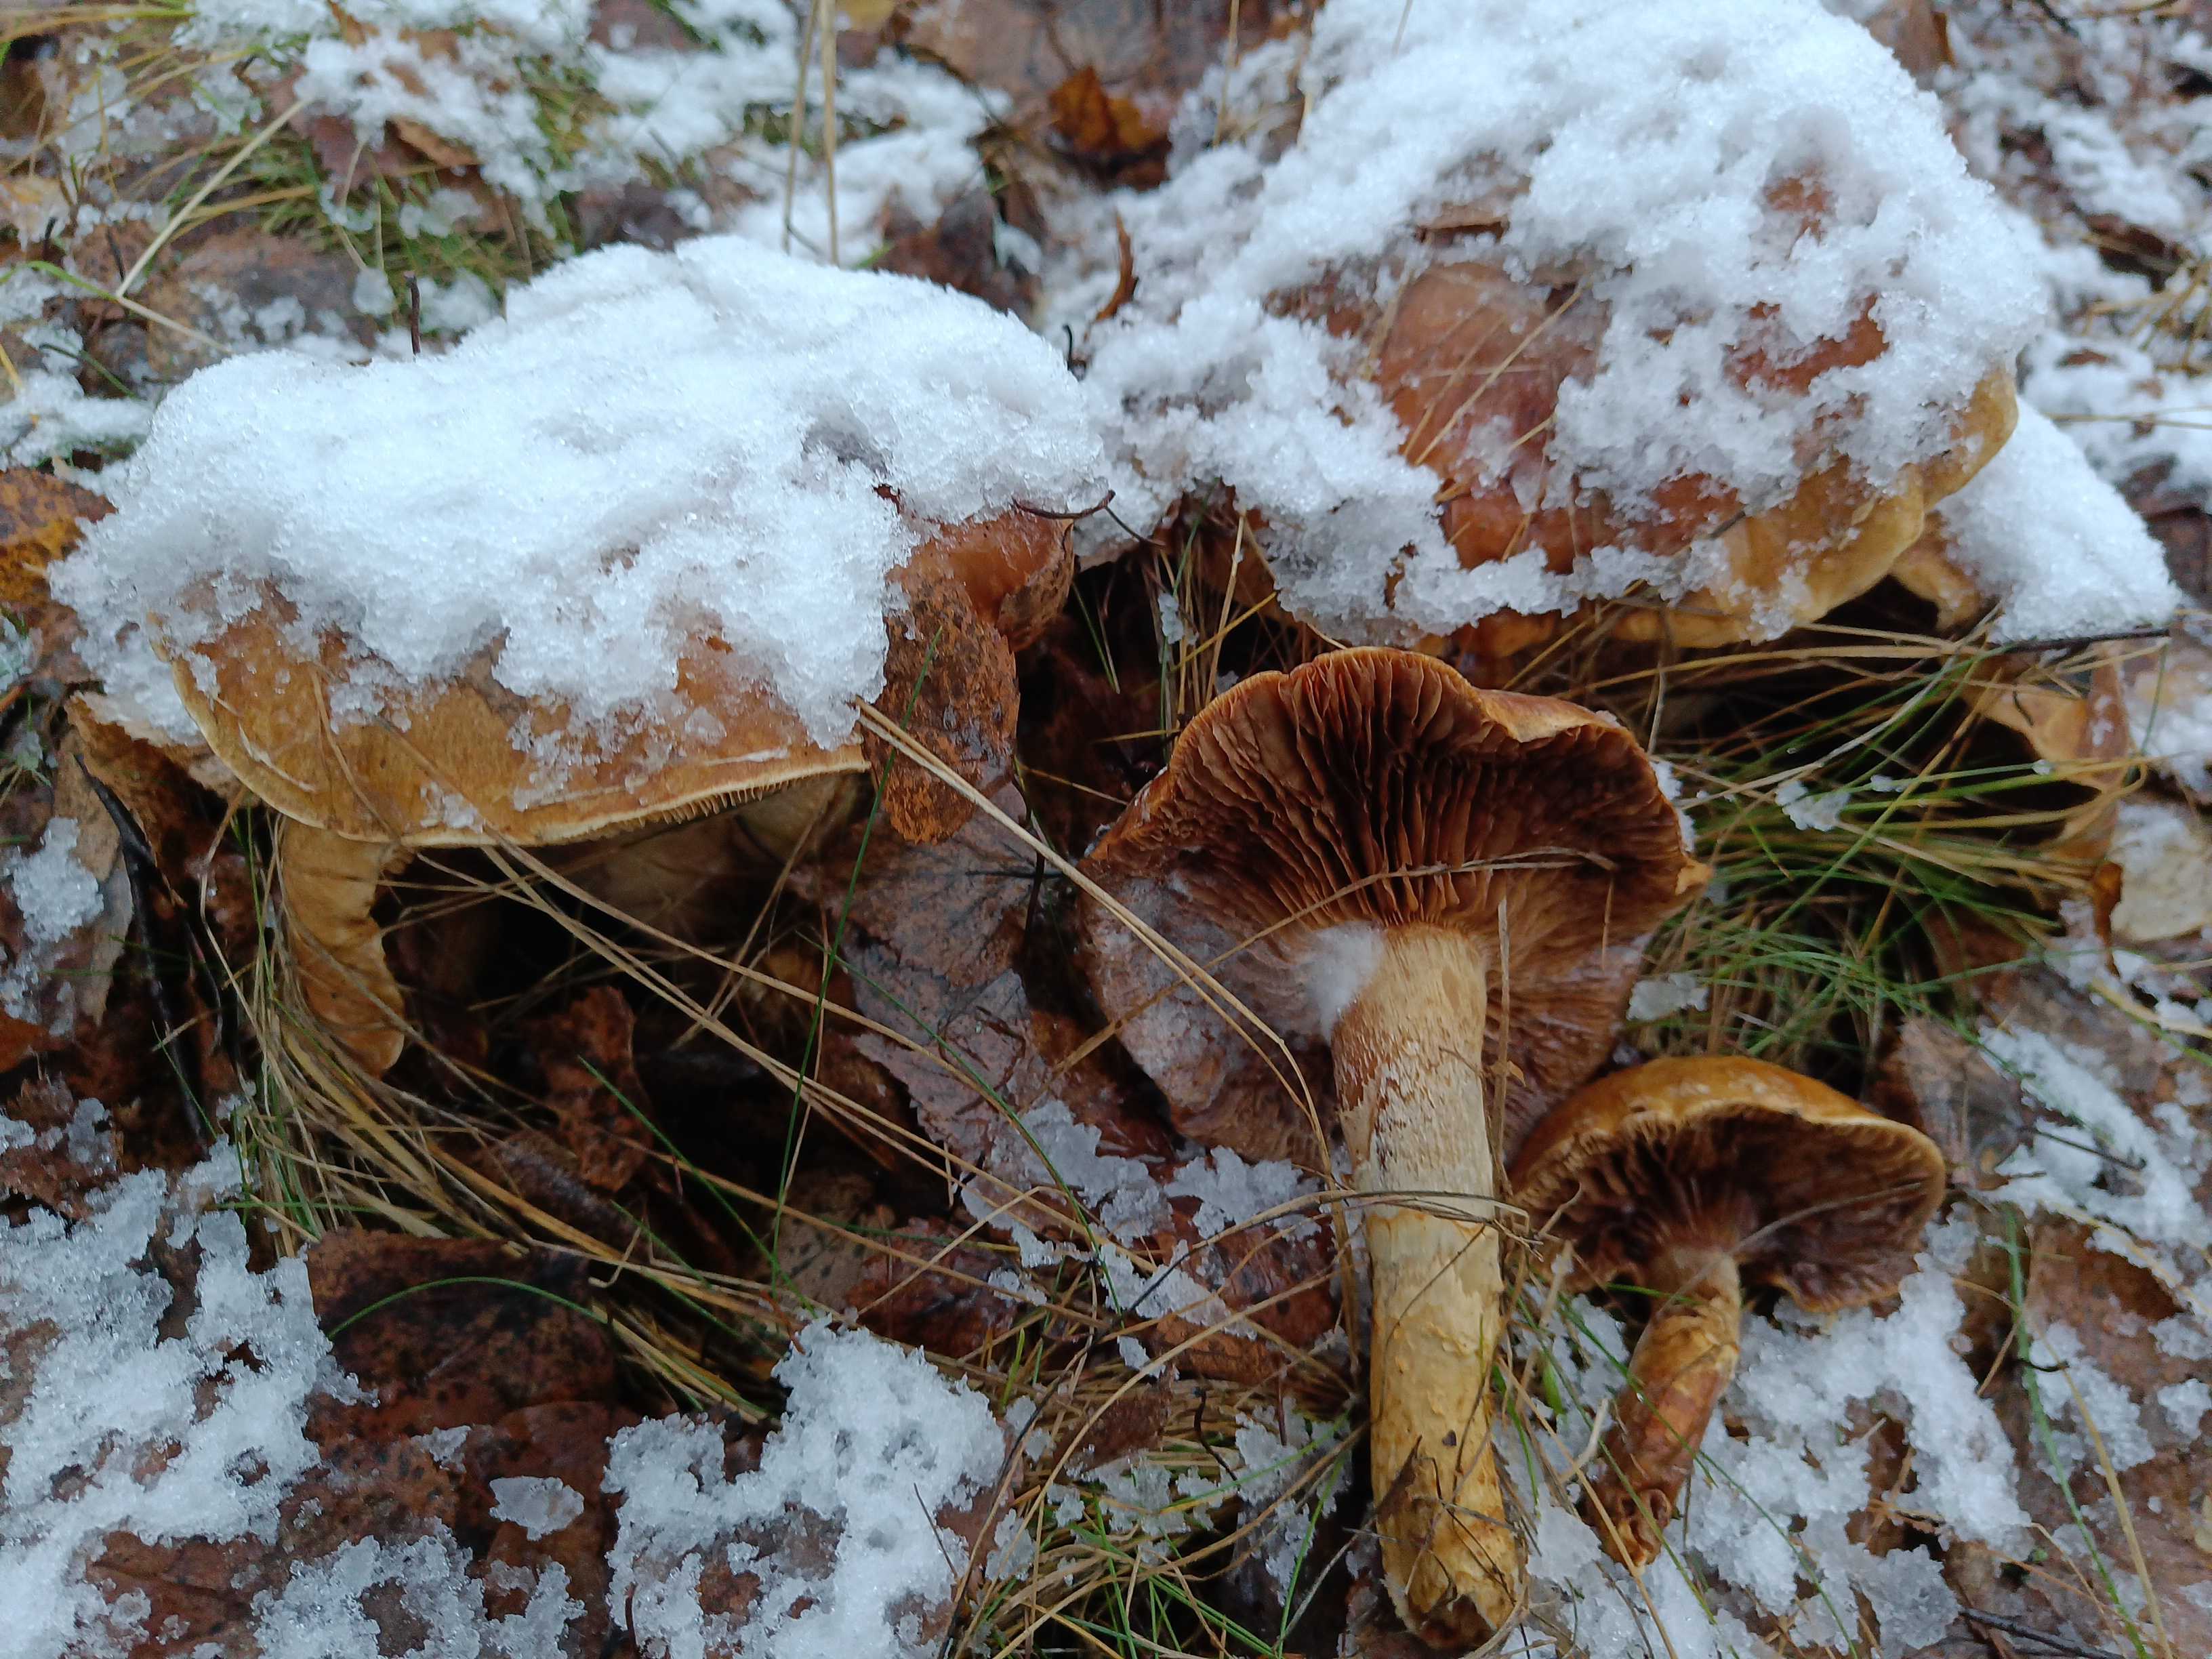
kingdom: Fungi
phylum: Basidiomycota
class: Agaricomycetes
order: Agaricales
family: Cortinariaceae
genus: Phlegmacium
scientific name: Phlegmacium triumphans
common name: gulbæltet slørhat
